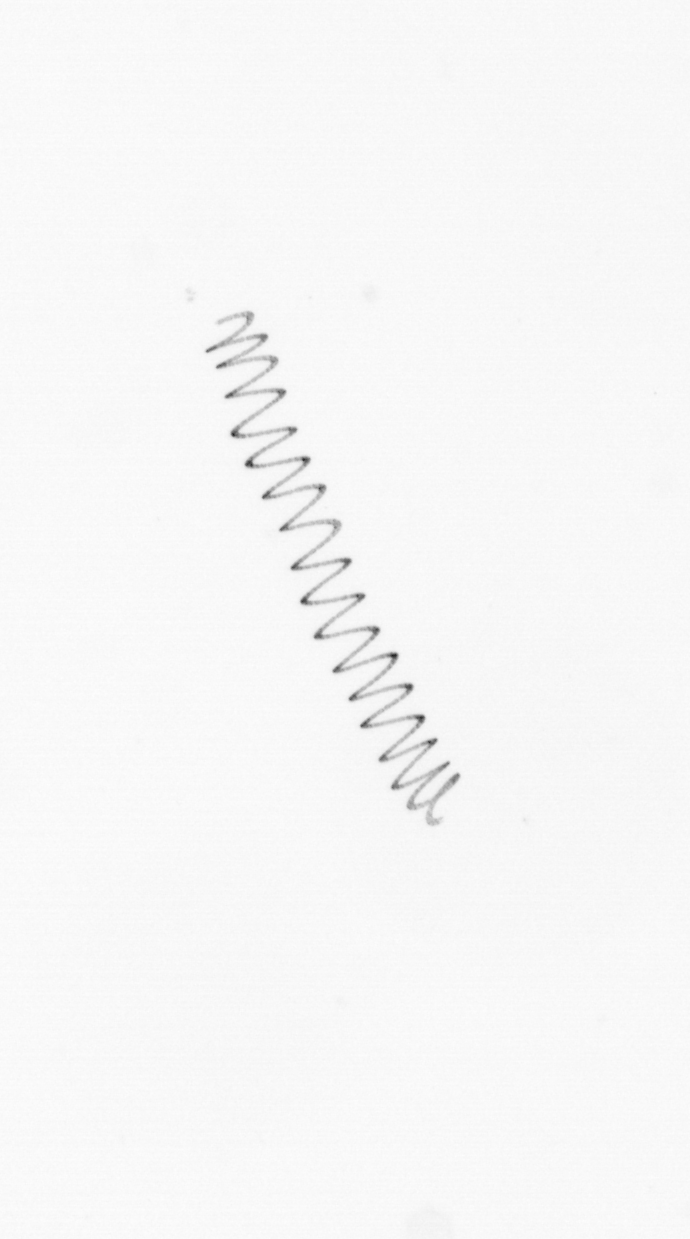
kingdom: Chromista
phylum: Ochrophyta
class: Bacillariophyceae
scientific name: Bacillariophyceae
